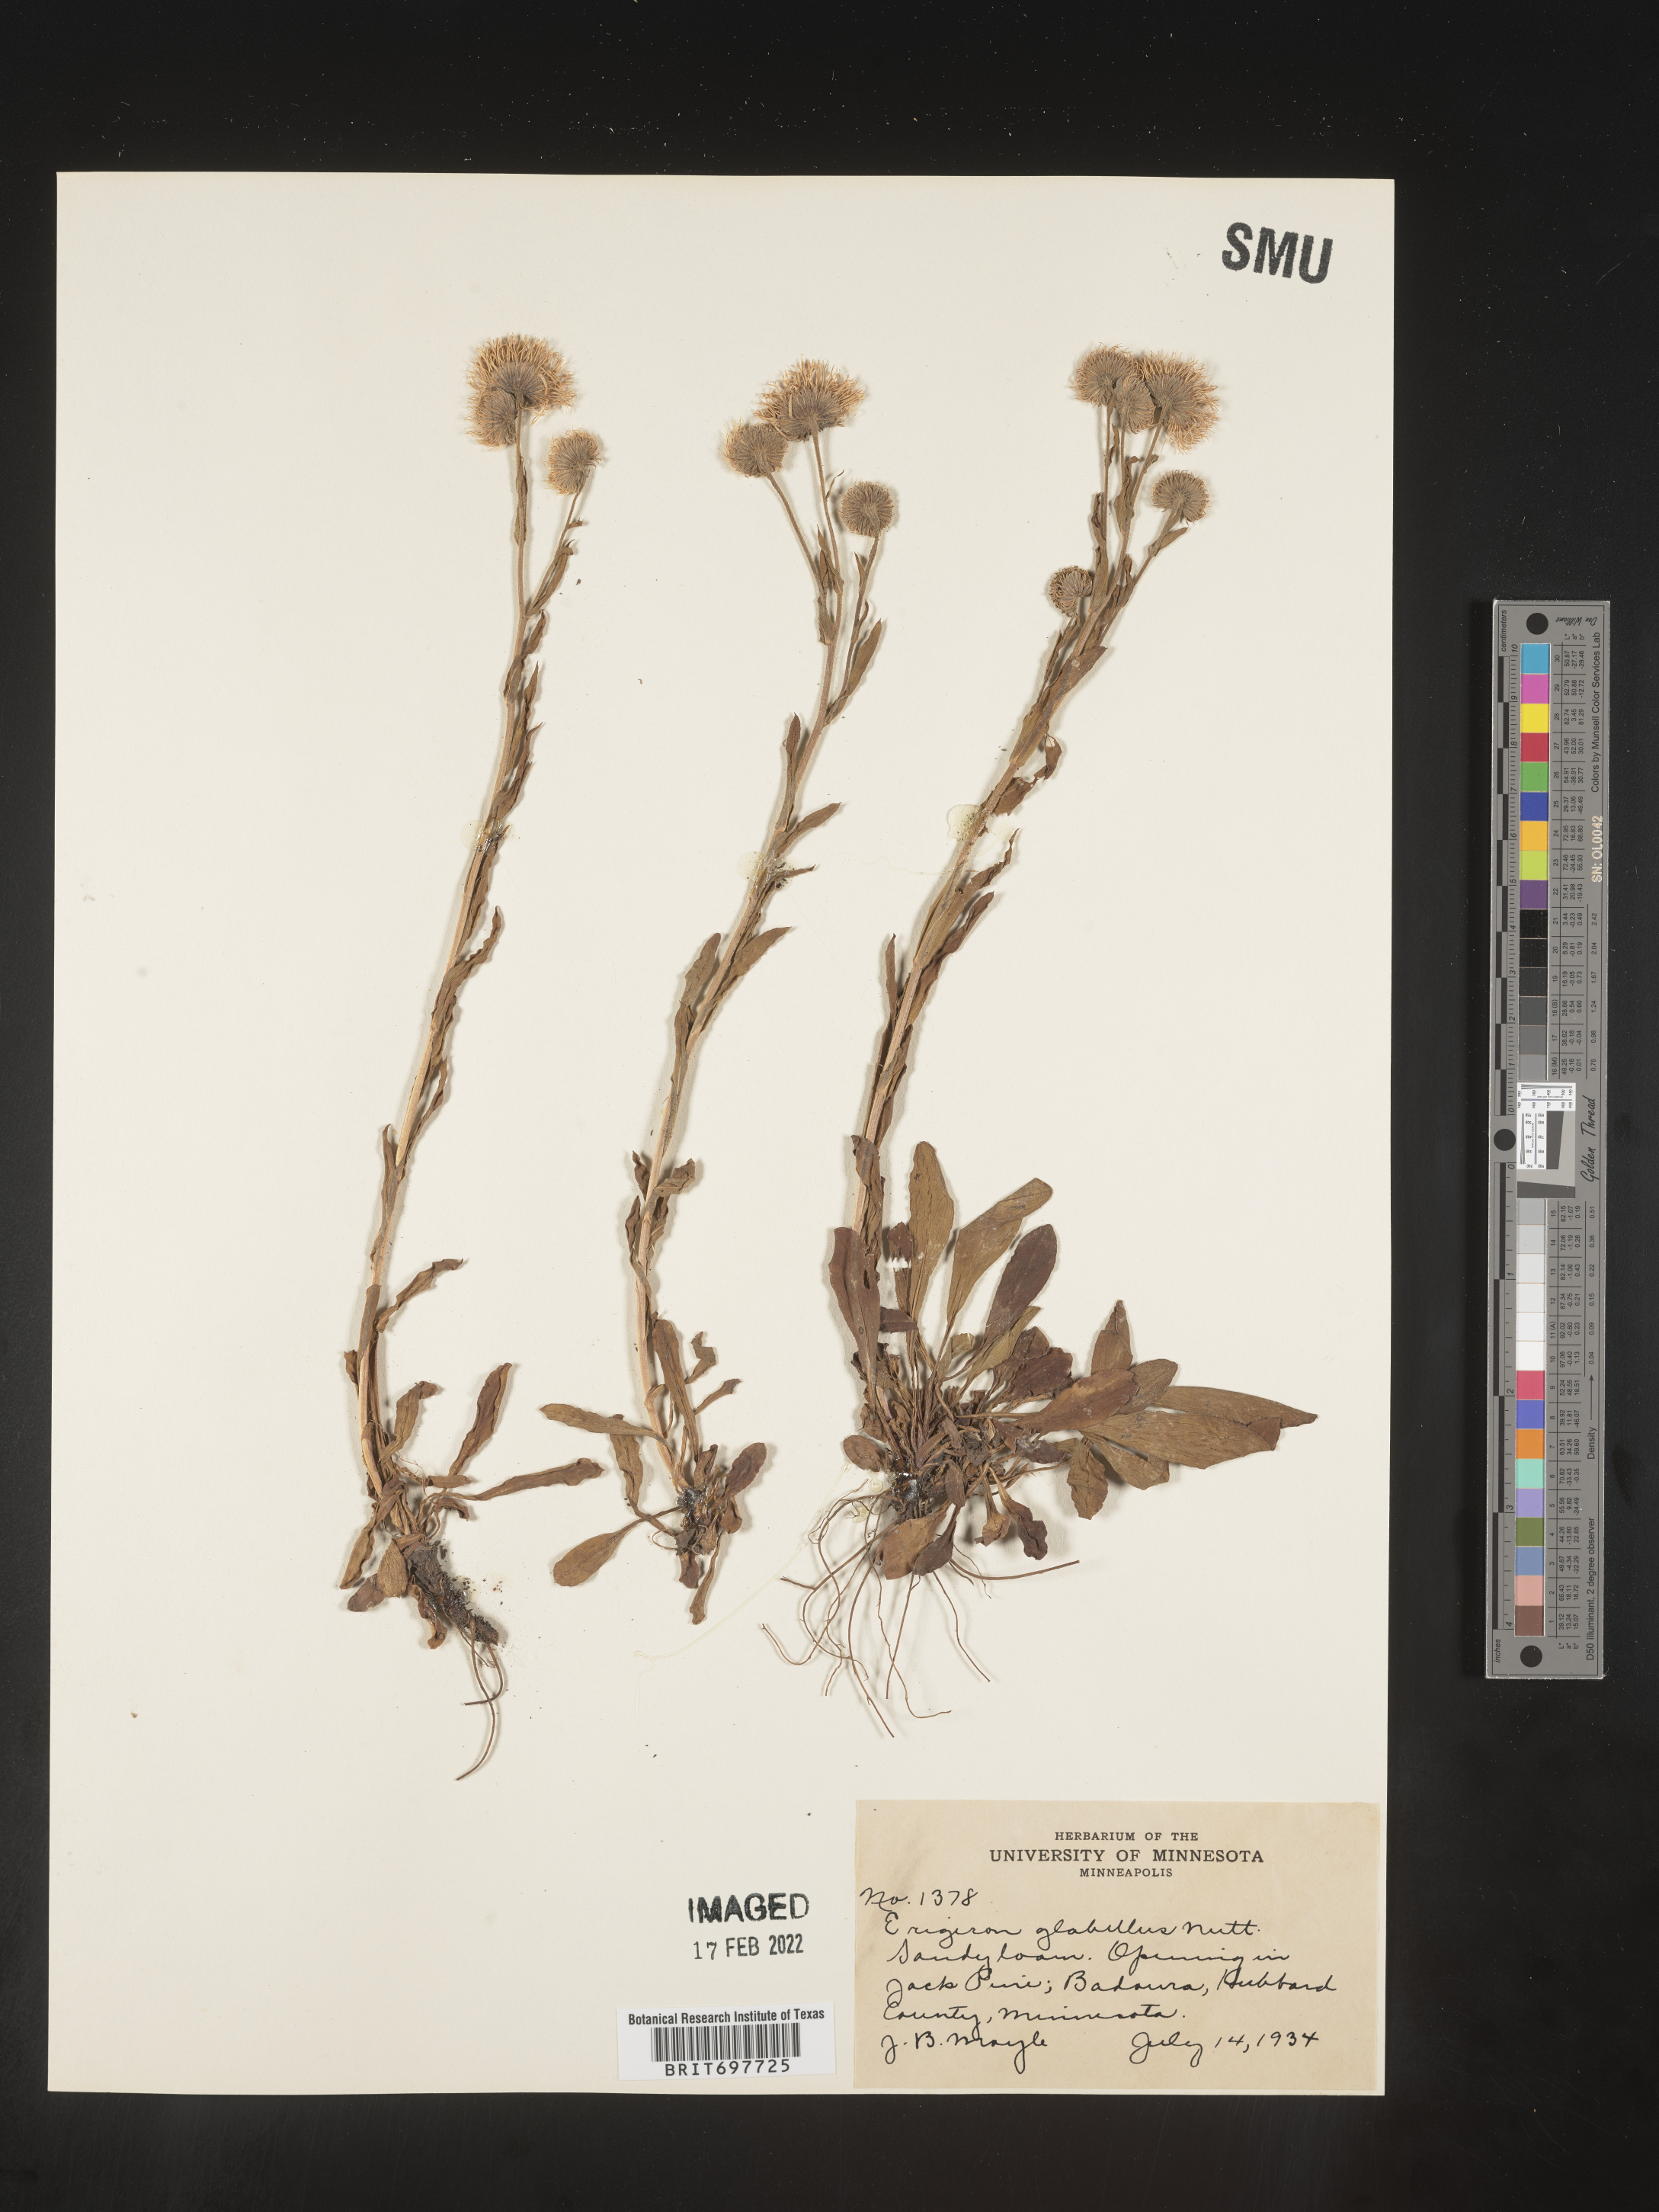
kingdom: Plantae
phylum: Tracheophyta
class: Magnoliopsida
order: Asterales
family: Asteraceae
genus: Erigeron
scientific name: Erigeron glabellus
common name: Smooth fleabane
